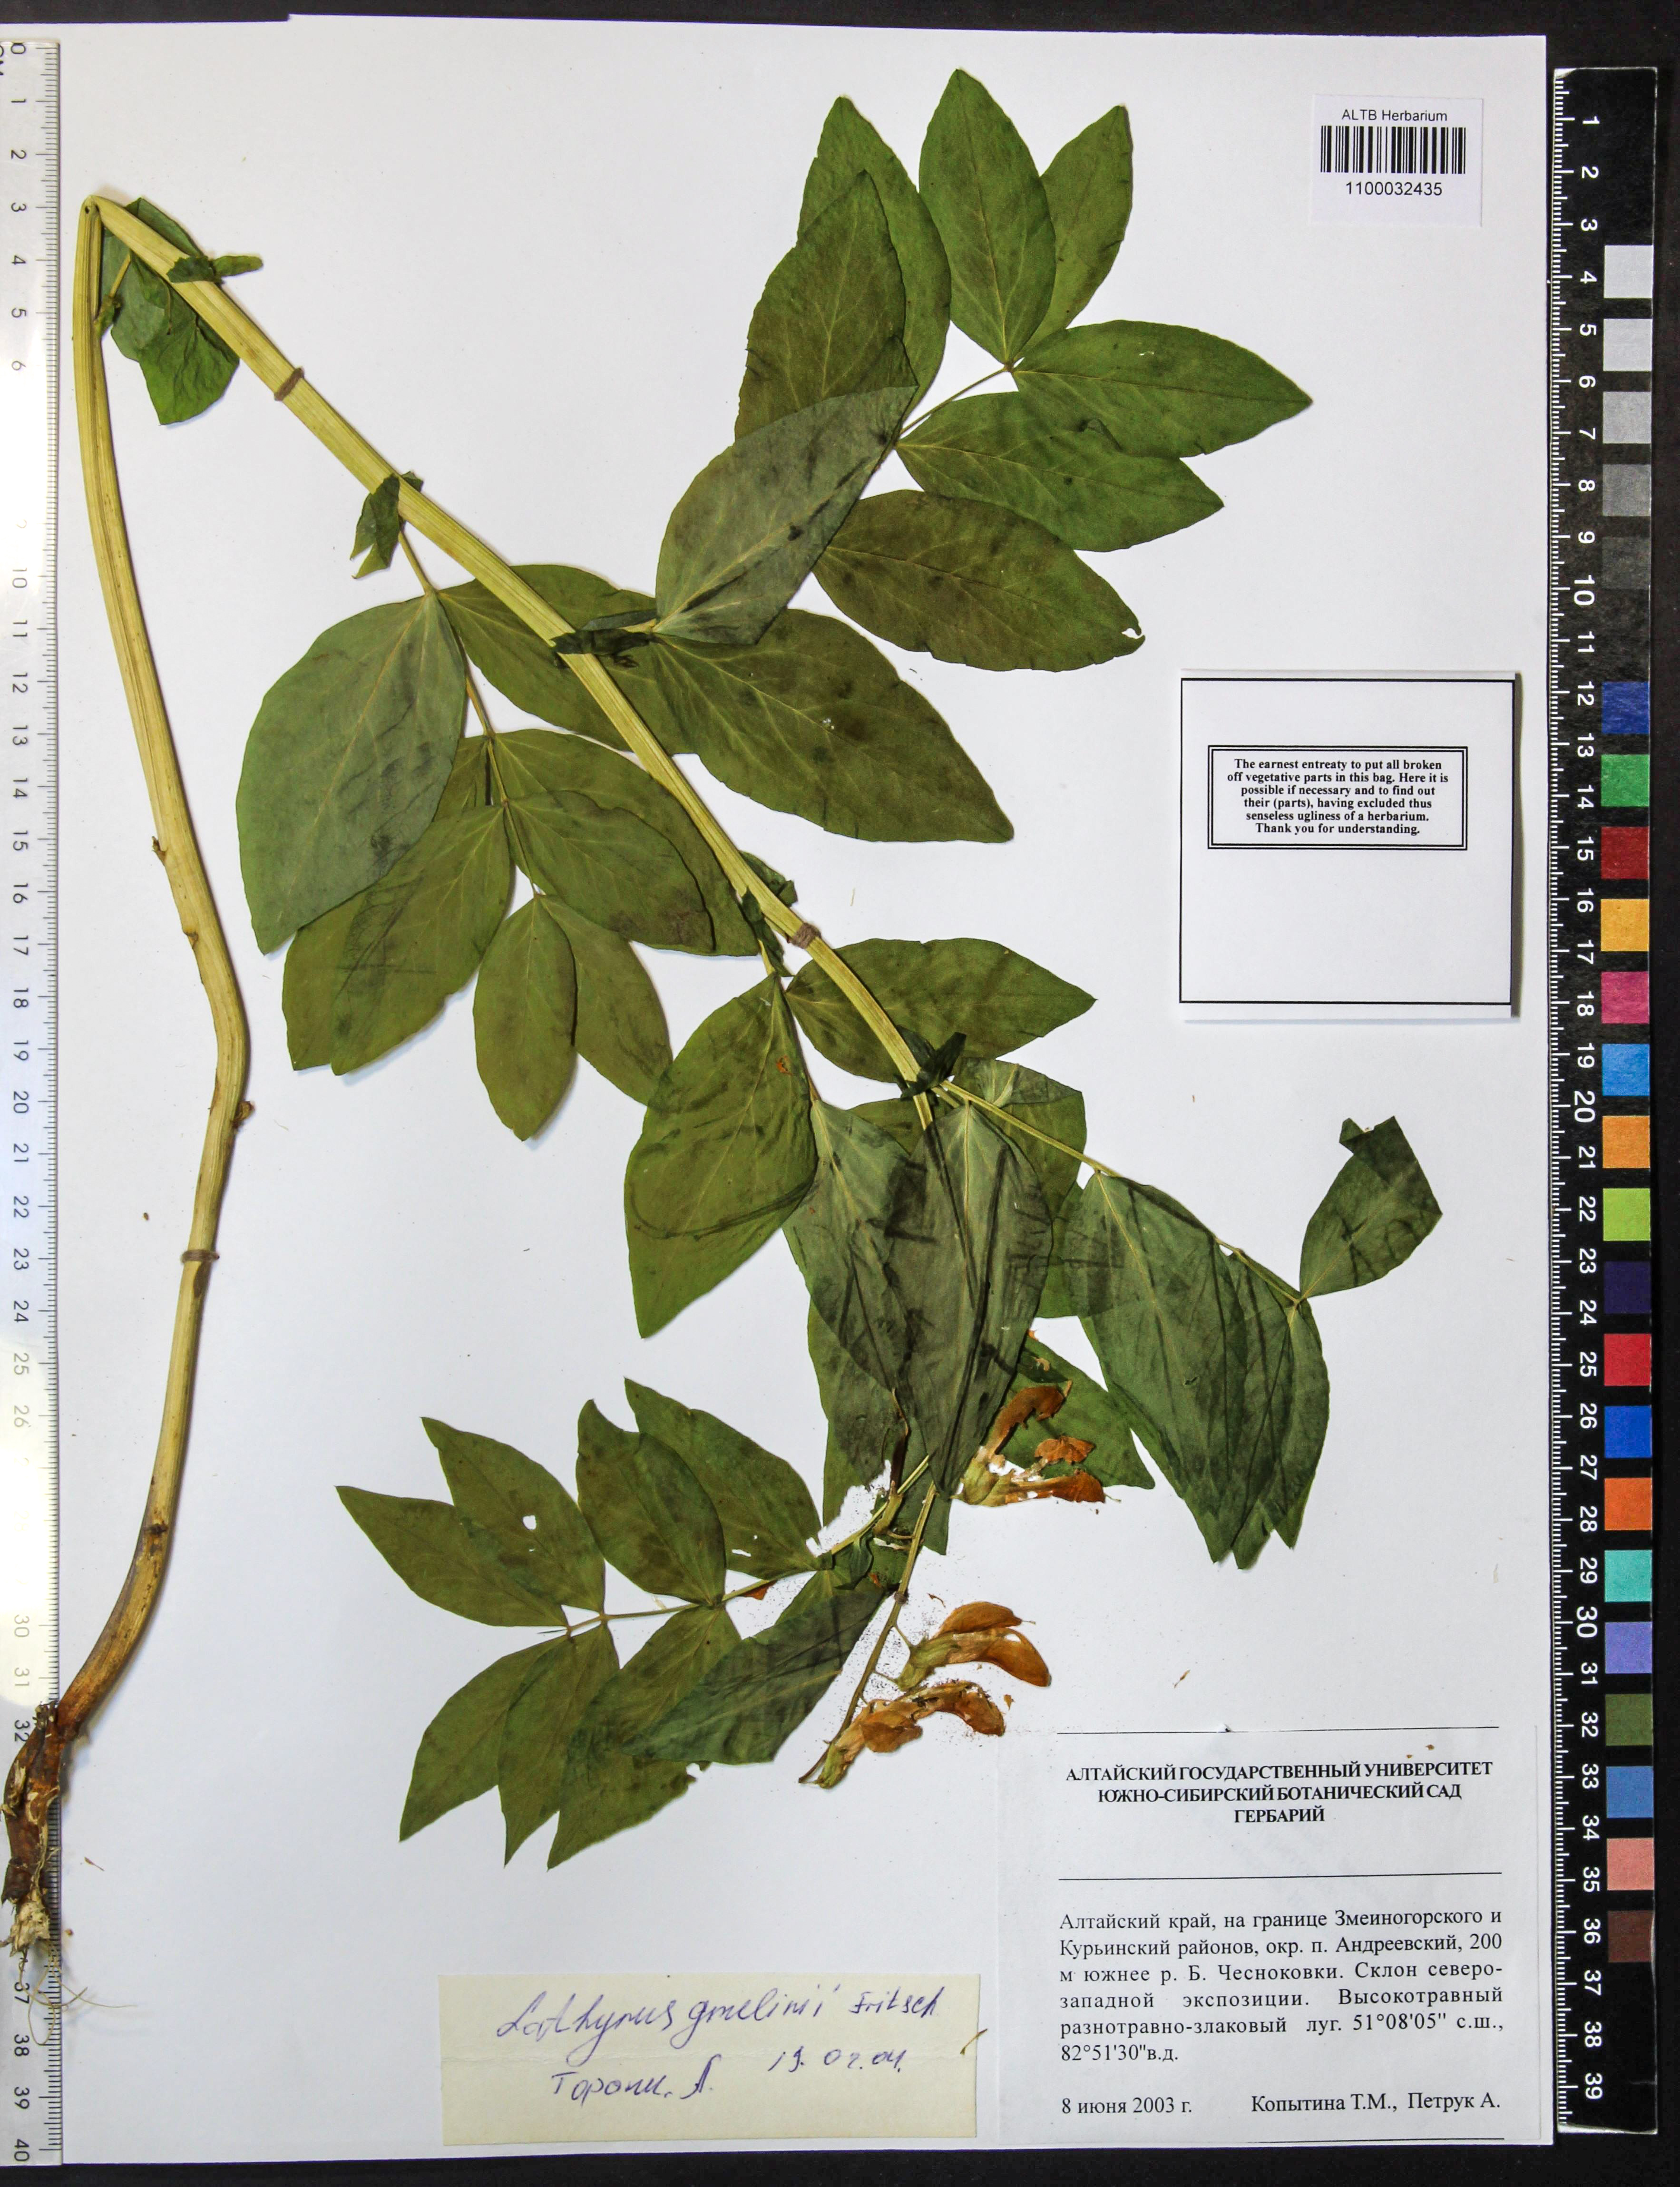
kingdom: Plantae
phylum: Tracheophyta
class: Magnoliopsida
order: Fabales
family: Fabaceae
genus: Lathyrus
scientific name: Lathyrus gmelinii
